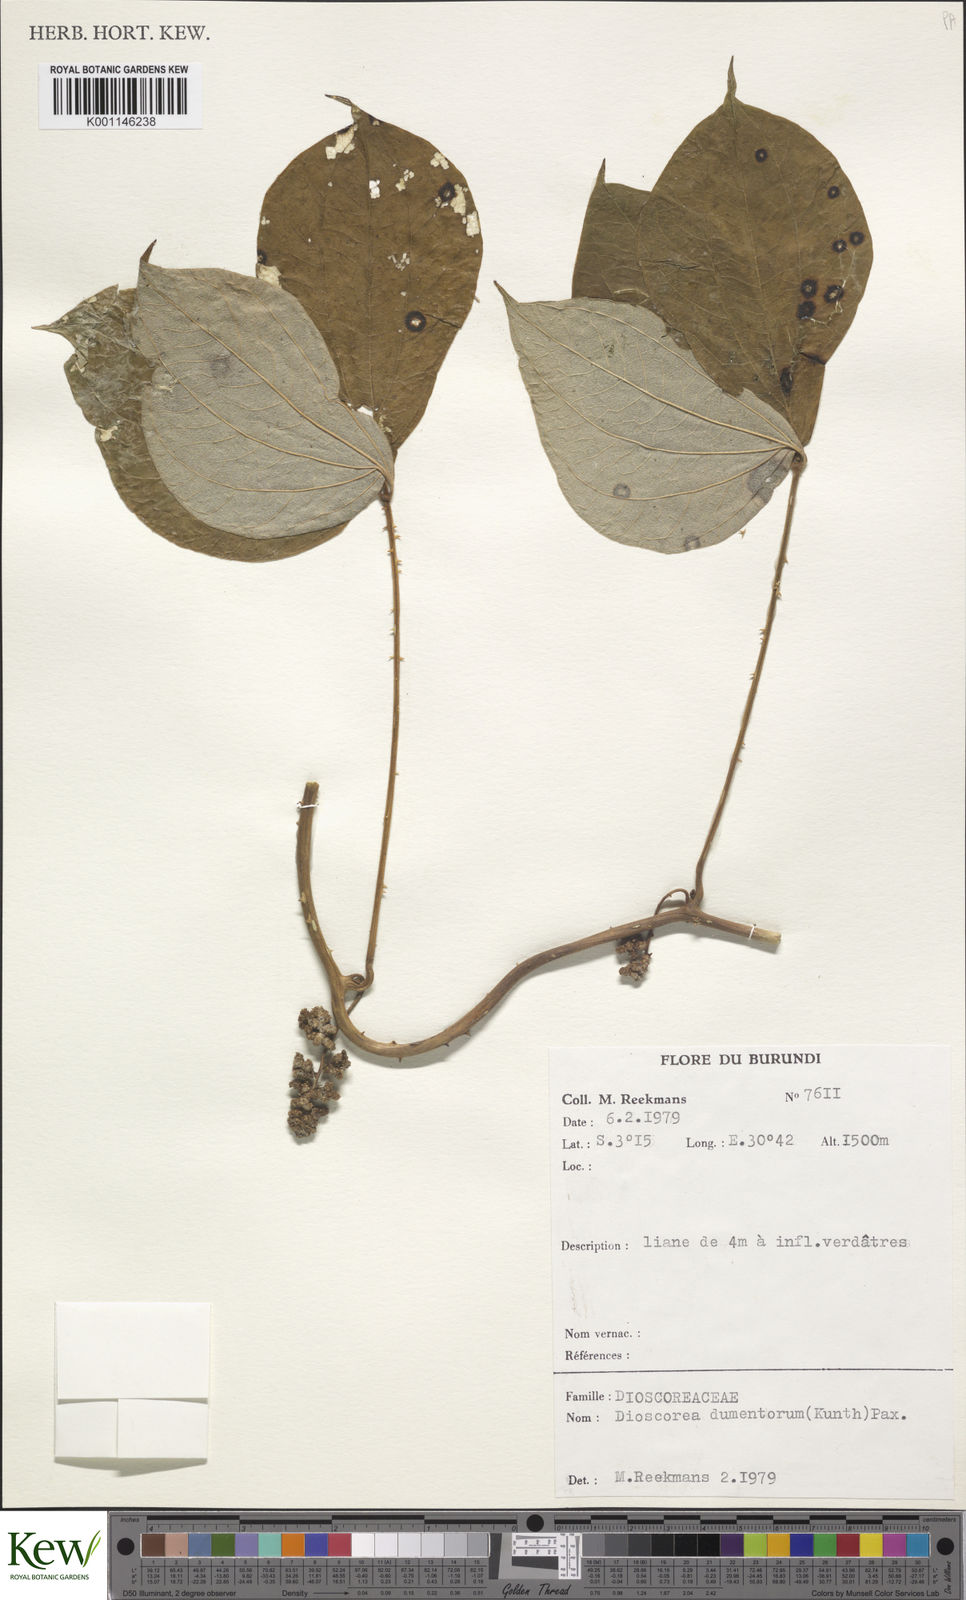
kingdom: Plantae
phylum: Tracheophyta
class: Liliopsida
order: Dioscoreales
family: Dioscoreaceae
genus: Dioscorea
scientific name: Dioscorea dumetorum
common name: African bitter yam
